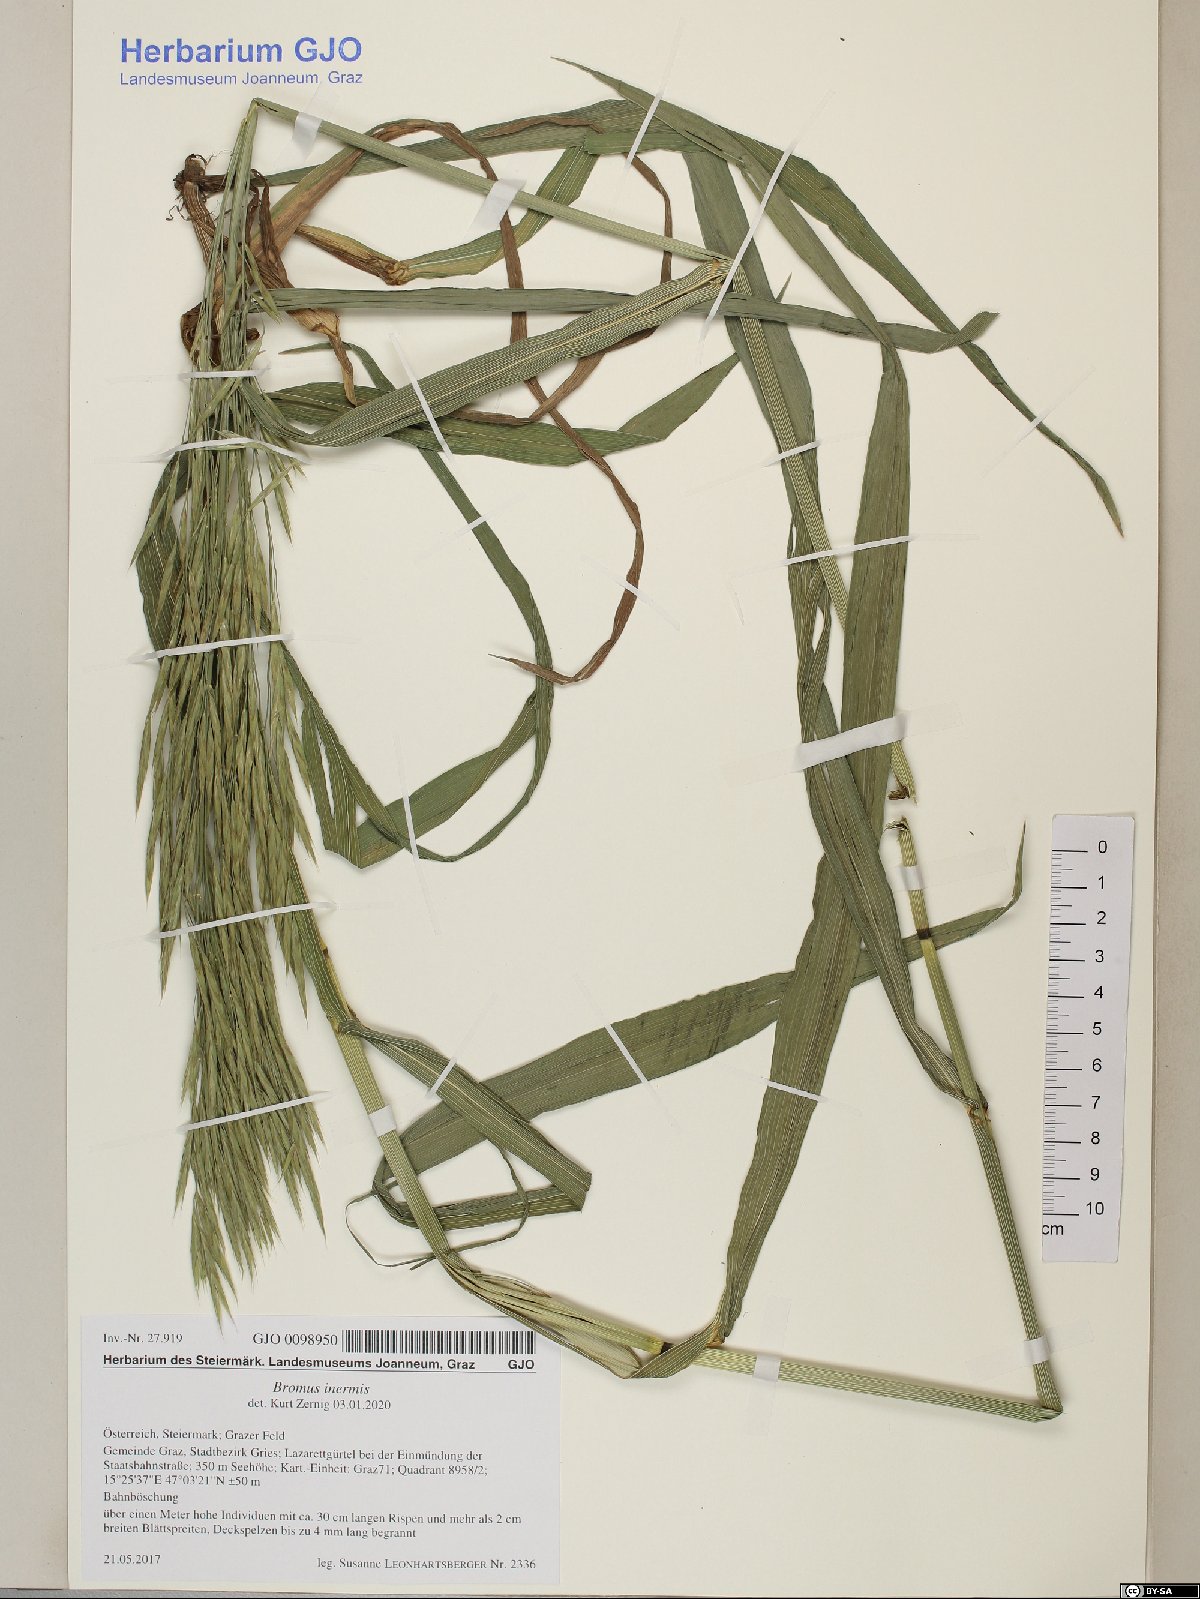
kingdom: Plantae
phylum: Tracheophyta
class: Liliopsida
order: Poales
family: Poaceae
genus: Bromus
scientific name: Bromus inermis
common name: Smooth brome
